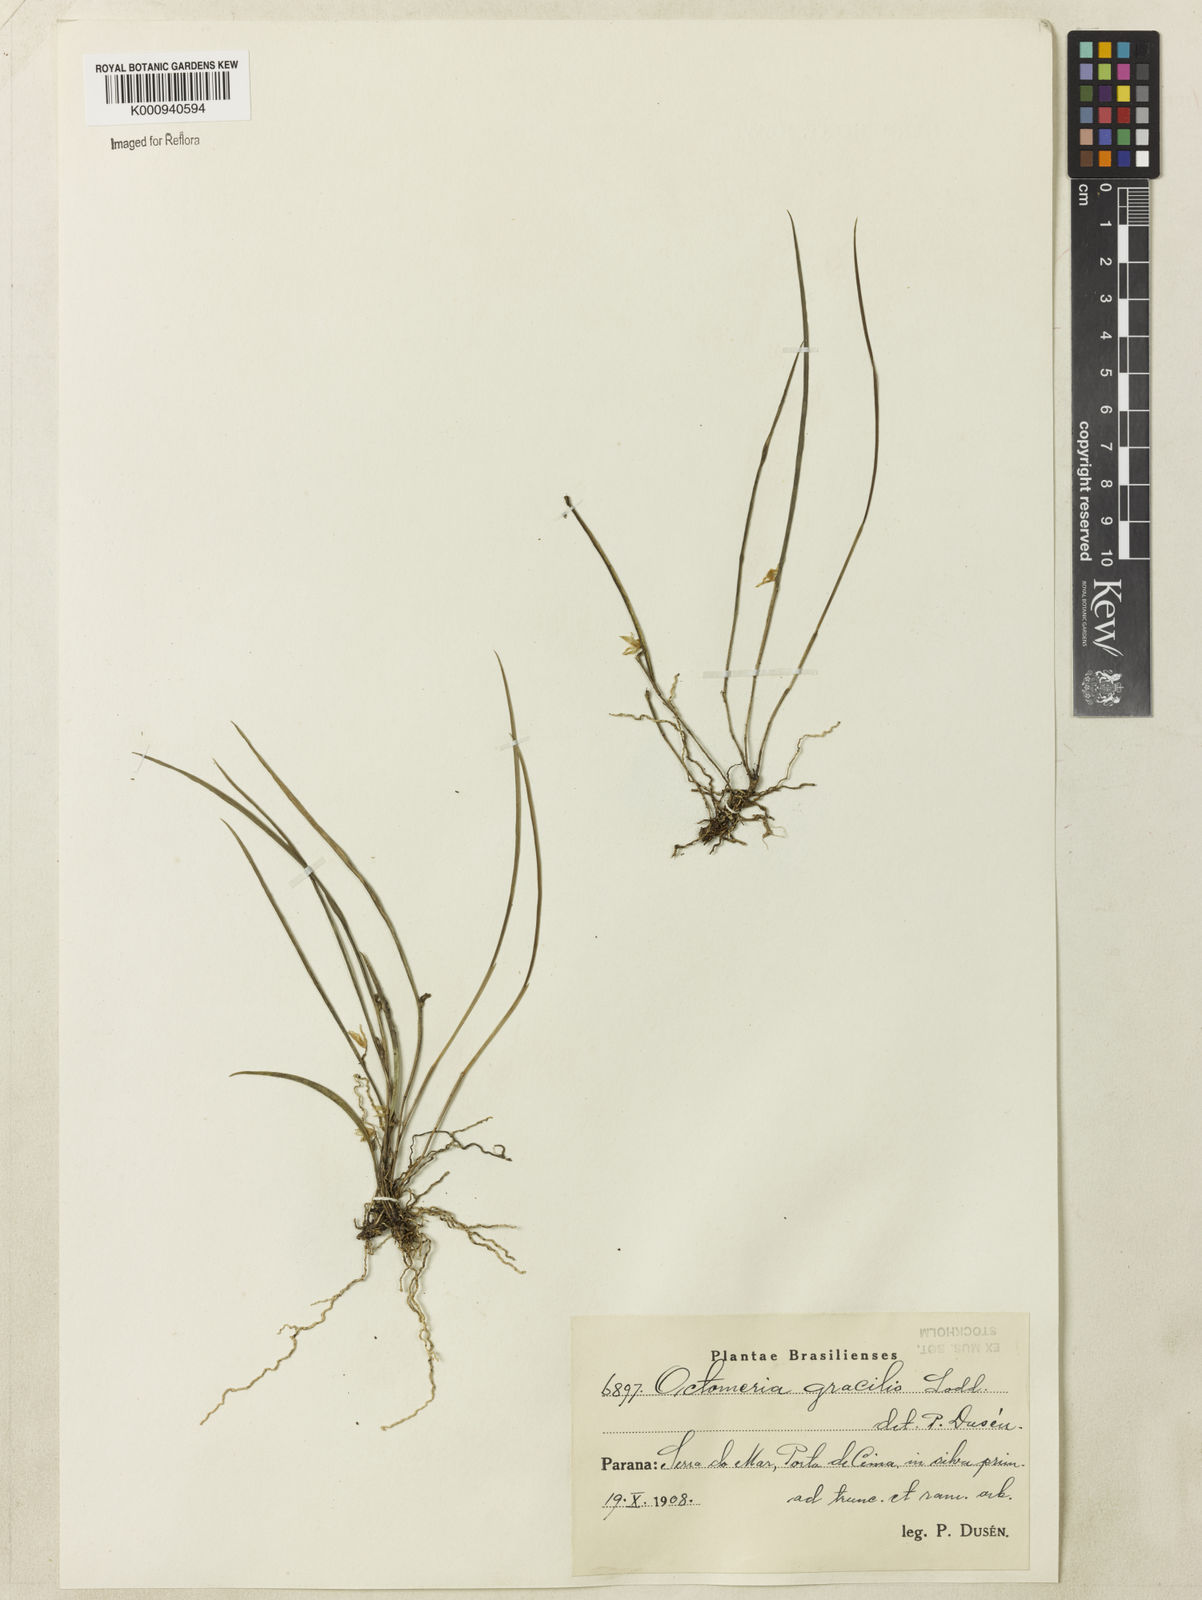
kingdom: Plantae
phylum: Tracheophyta
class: Liliopsida
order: Asparagales
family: Orchidaceae
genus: Octomeria
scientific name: Octomeria gracilis
